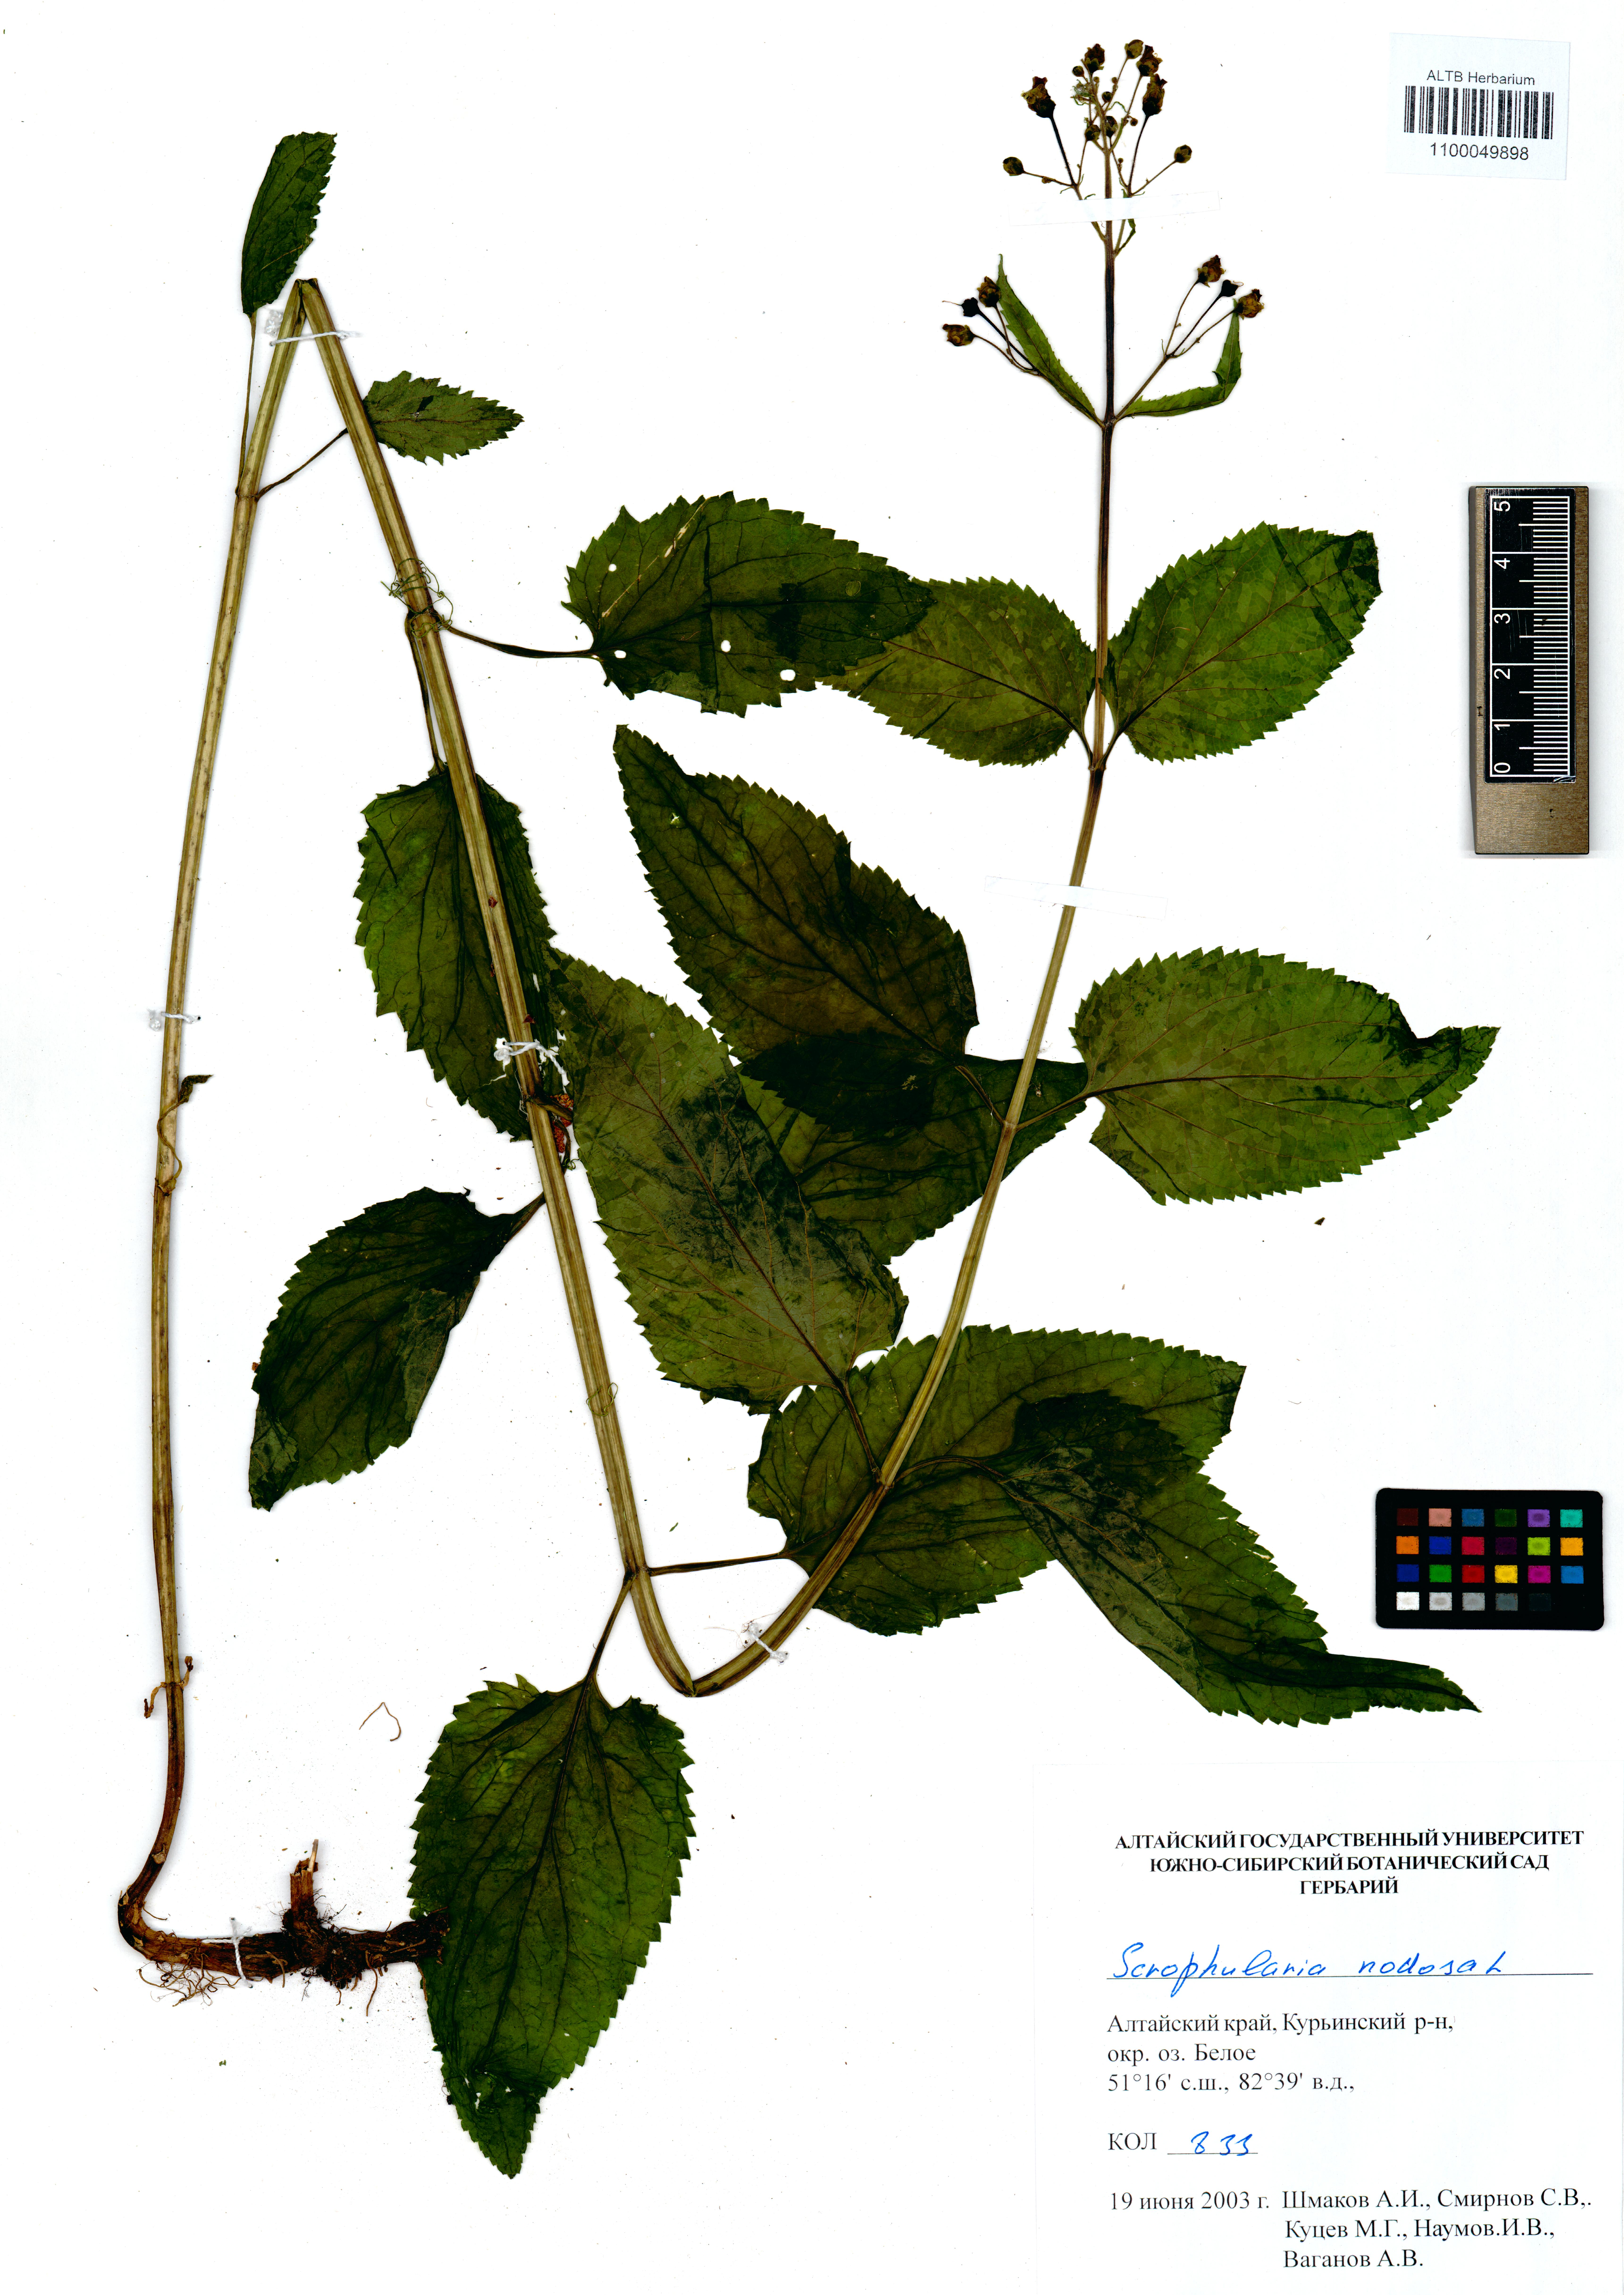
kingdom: Plantae
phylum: Tracheophyta
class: Magnoliopsida
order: Lamiales
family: Scrophulariaceae
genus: Scrophularia
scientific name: Scrophularia nodosa
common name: Common figwort
